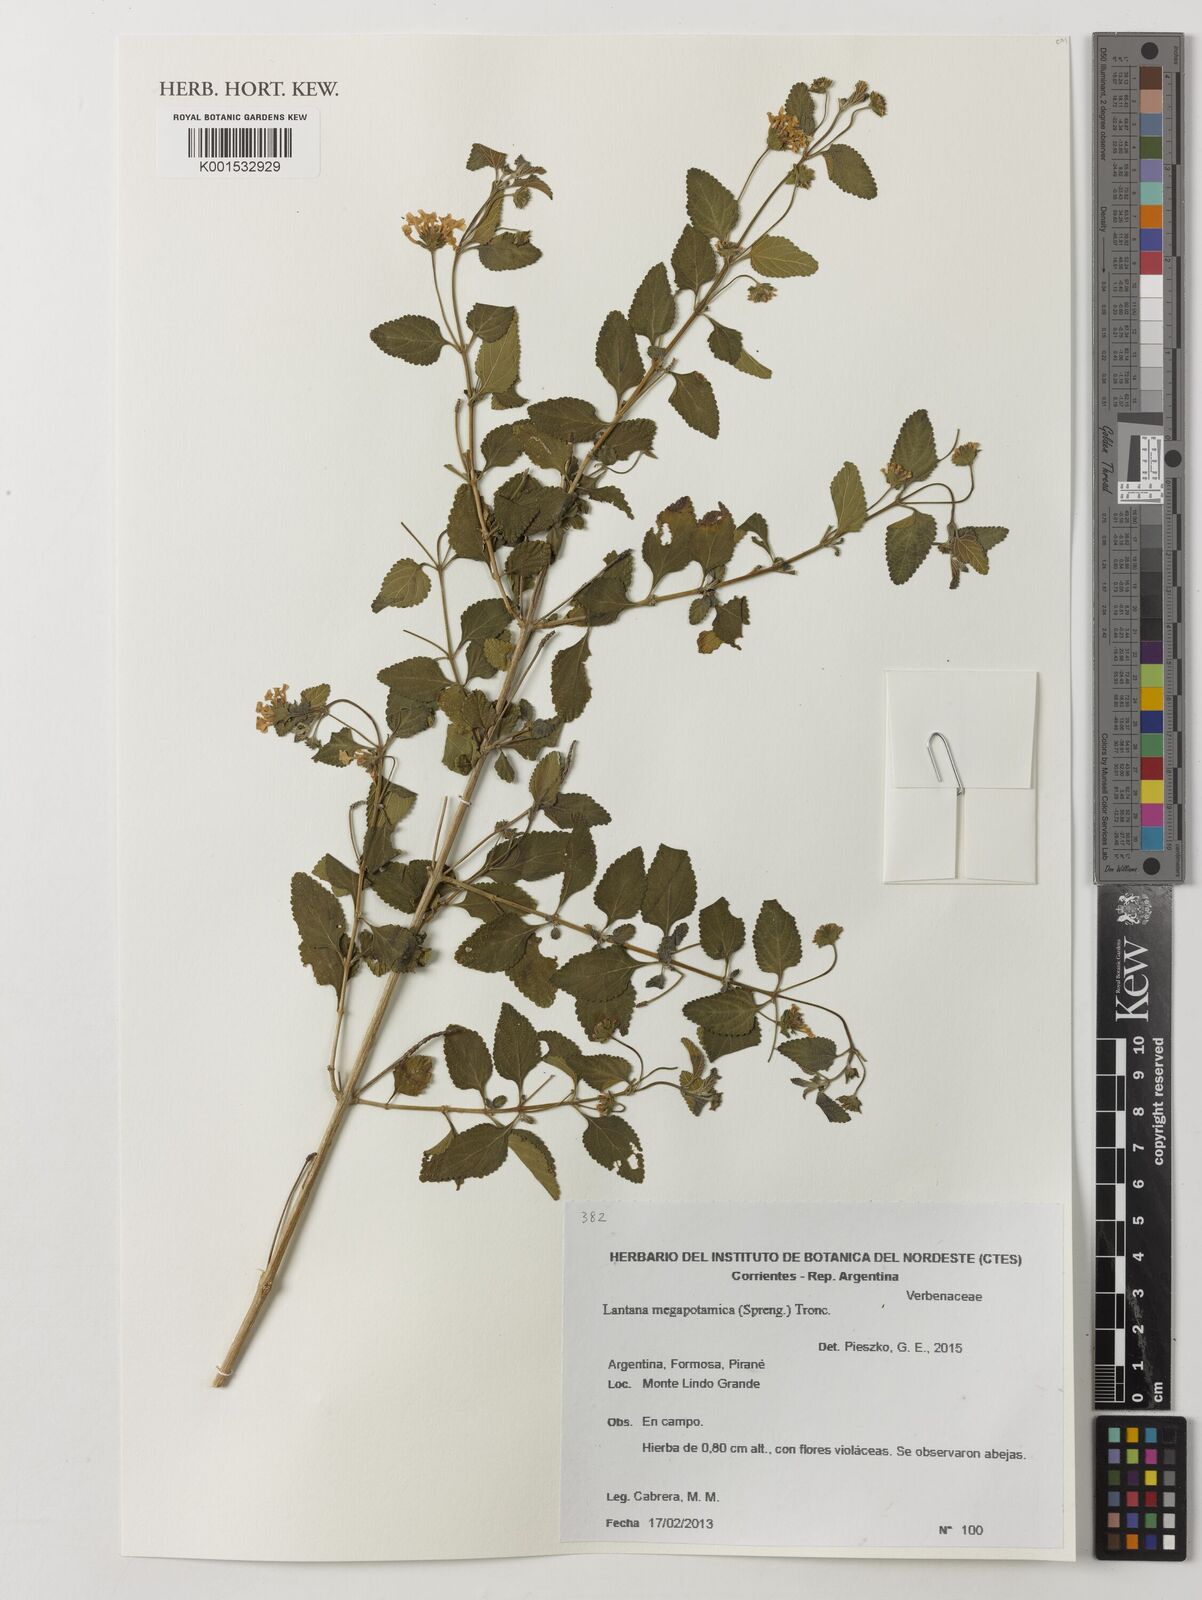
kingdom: Plantae
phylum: Tracheophyta
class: Magnoliopsida
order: Lamiales
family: Verbenaceae
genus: Lantana
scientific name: Lantana megapotamica
